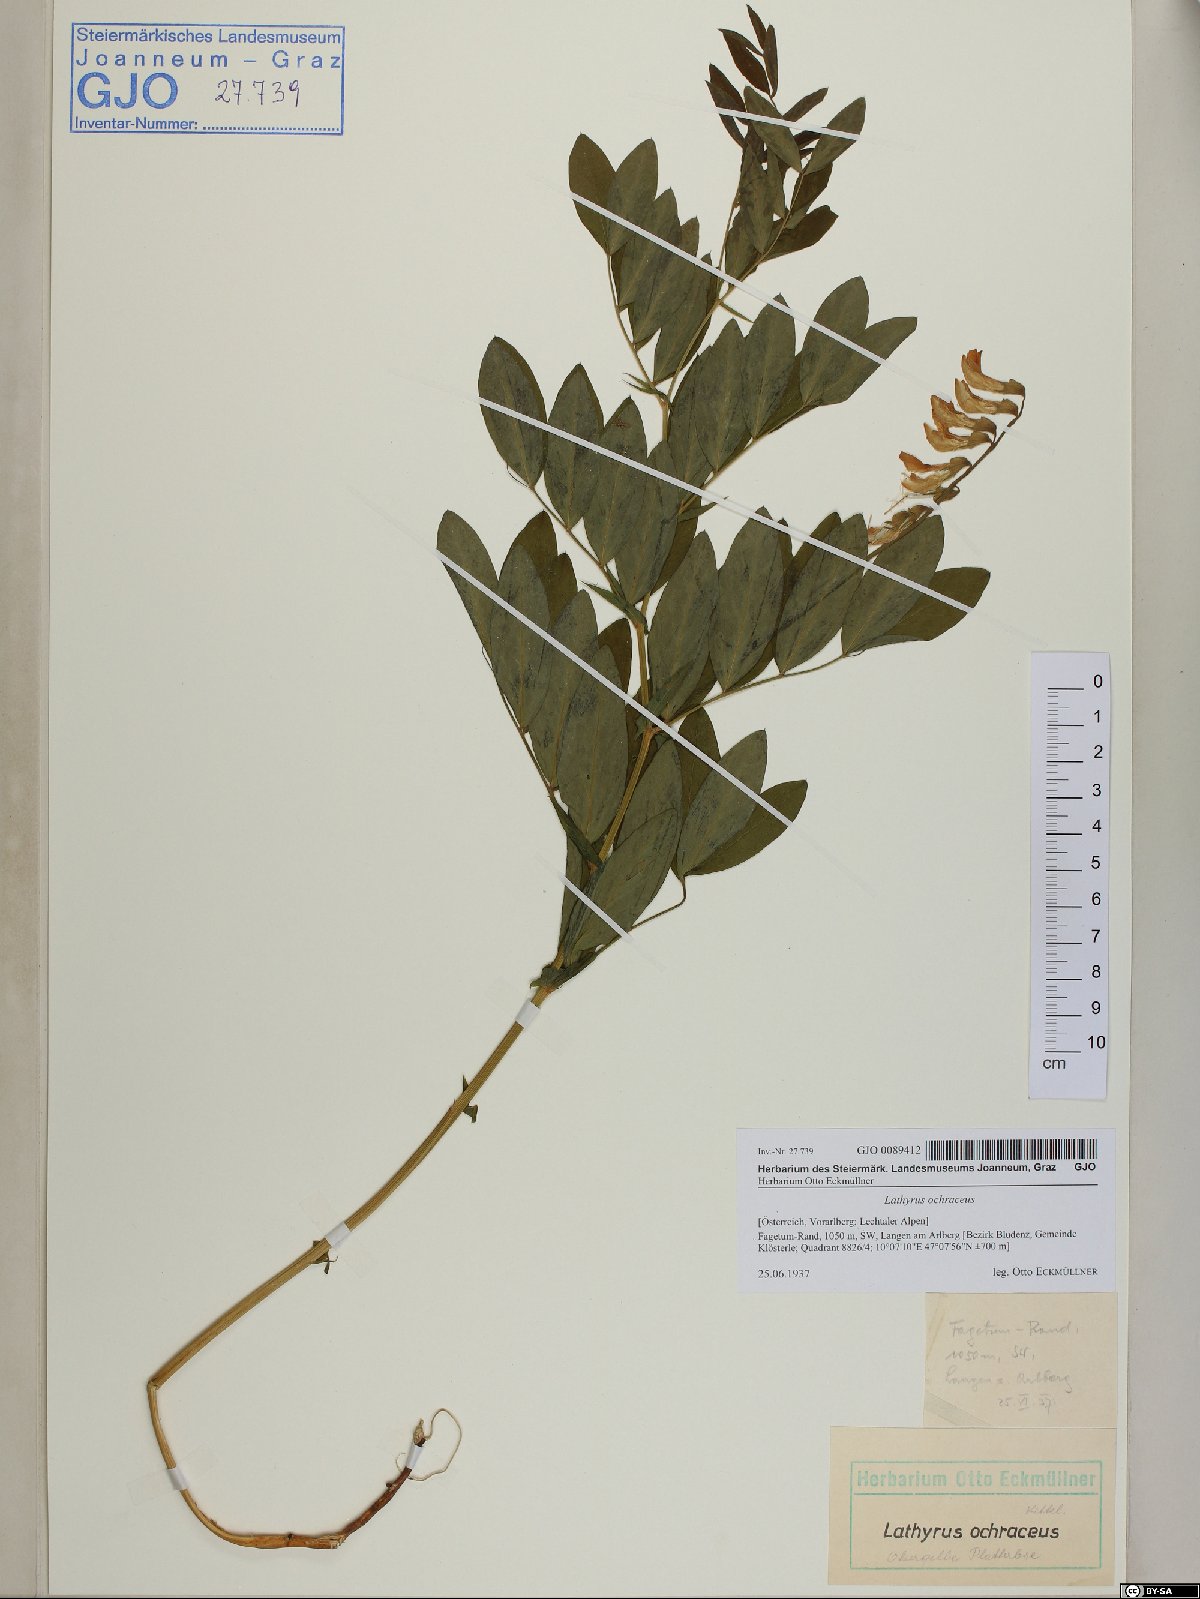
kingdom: Plantae
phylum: Tracheophyta
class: Magnoliopsida
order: Fabales
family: Fabaceae
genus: Lathyrus
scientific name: Lathyrus laevigatus
